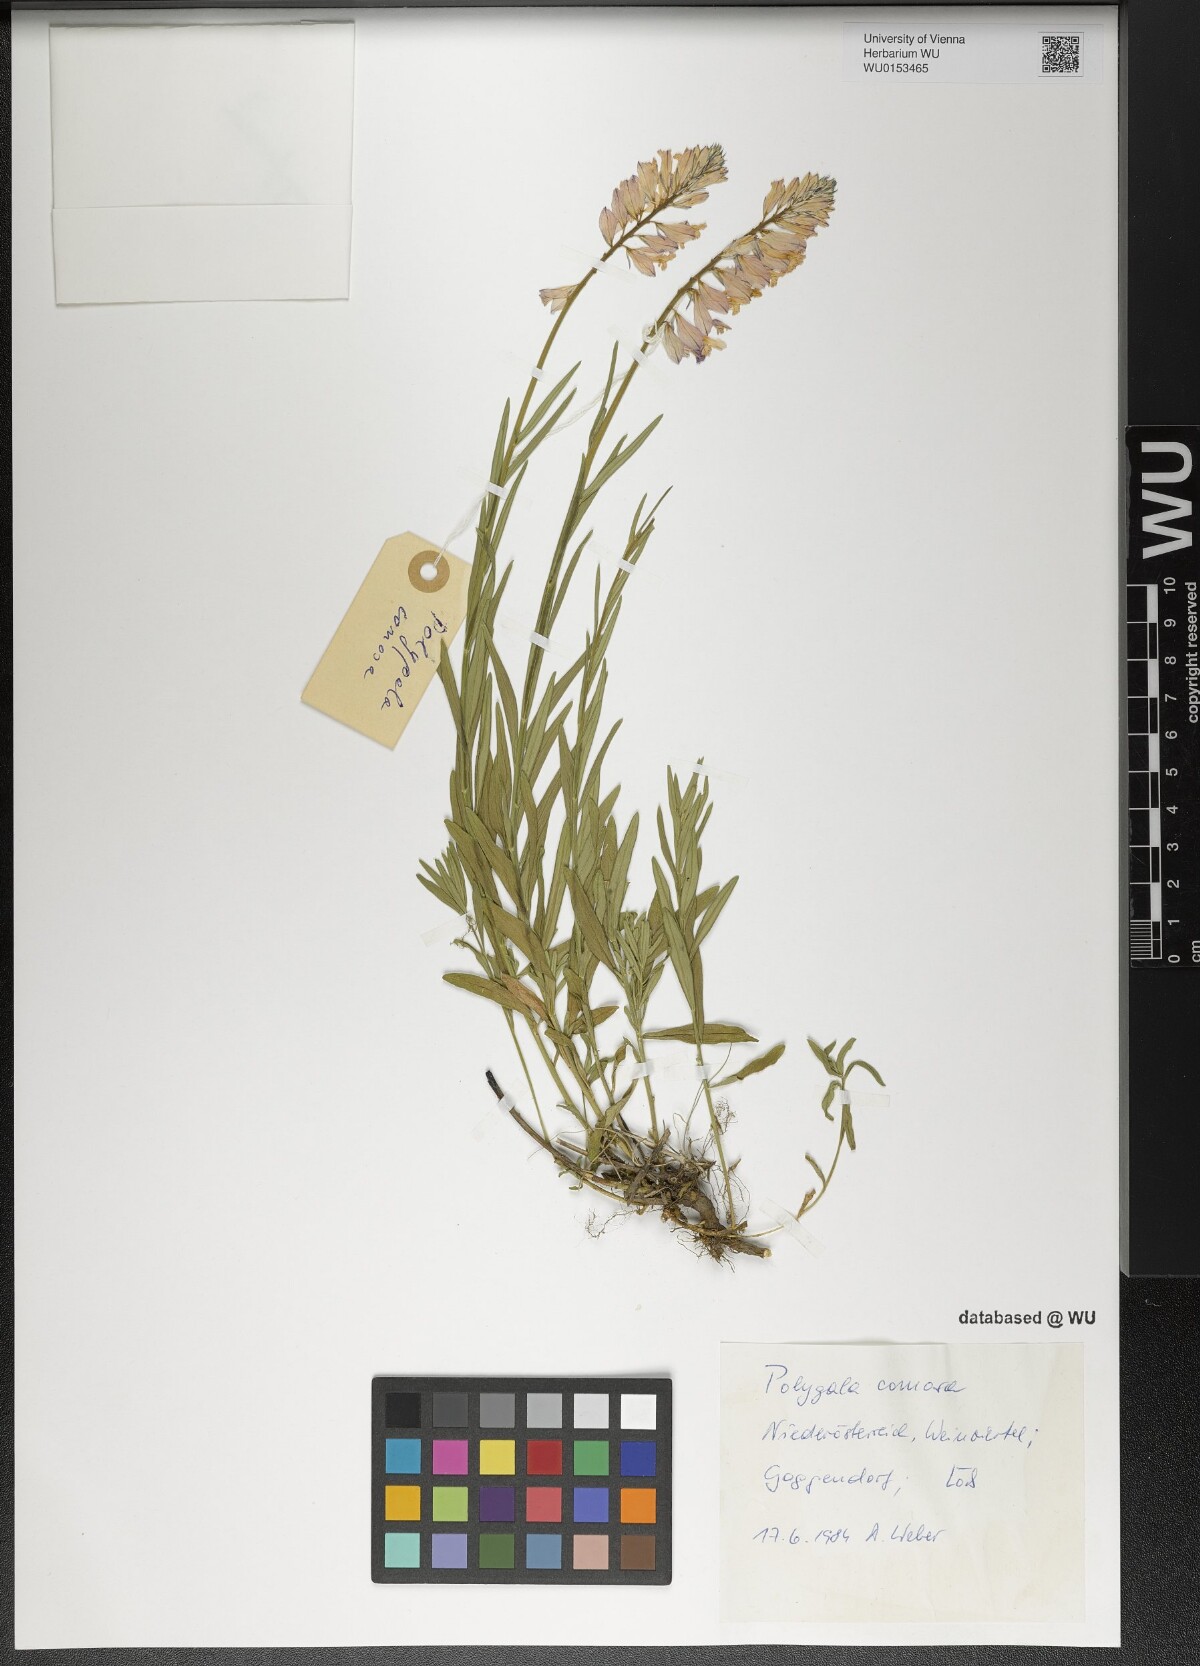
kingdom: Plantae
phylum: Tracheophyta
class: Magnoliopsida
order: Fabales
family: Polygalaceae
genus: Polygala
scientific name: Polygala comosa
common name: Tufted milkwort
